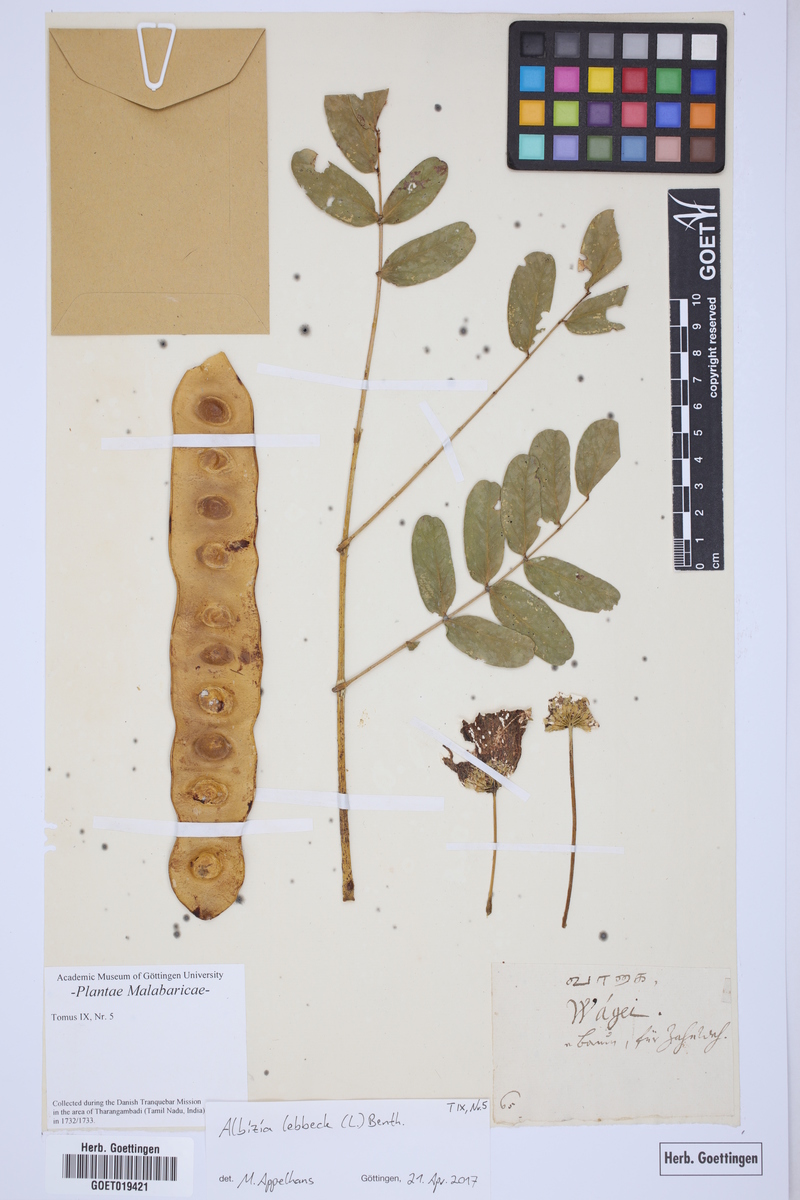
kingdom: Plantae
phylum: Tracheophyta
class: Magnoliopsida
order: Fabales
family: Fabaceae
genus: Albizia
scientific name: Albizia lebbeck
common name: Woman's tongue
